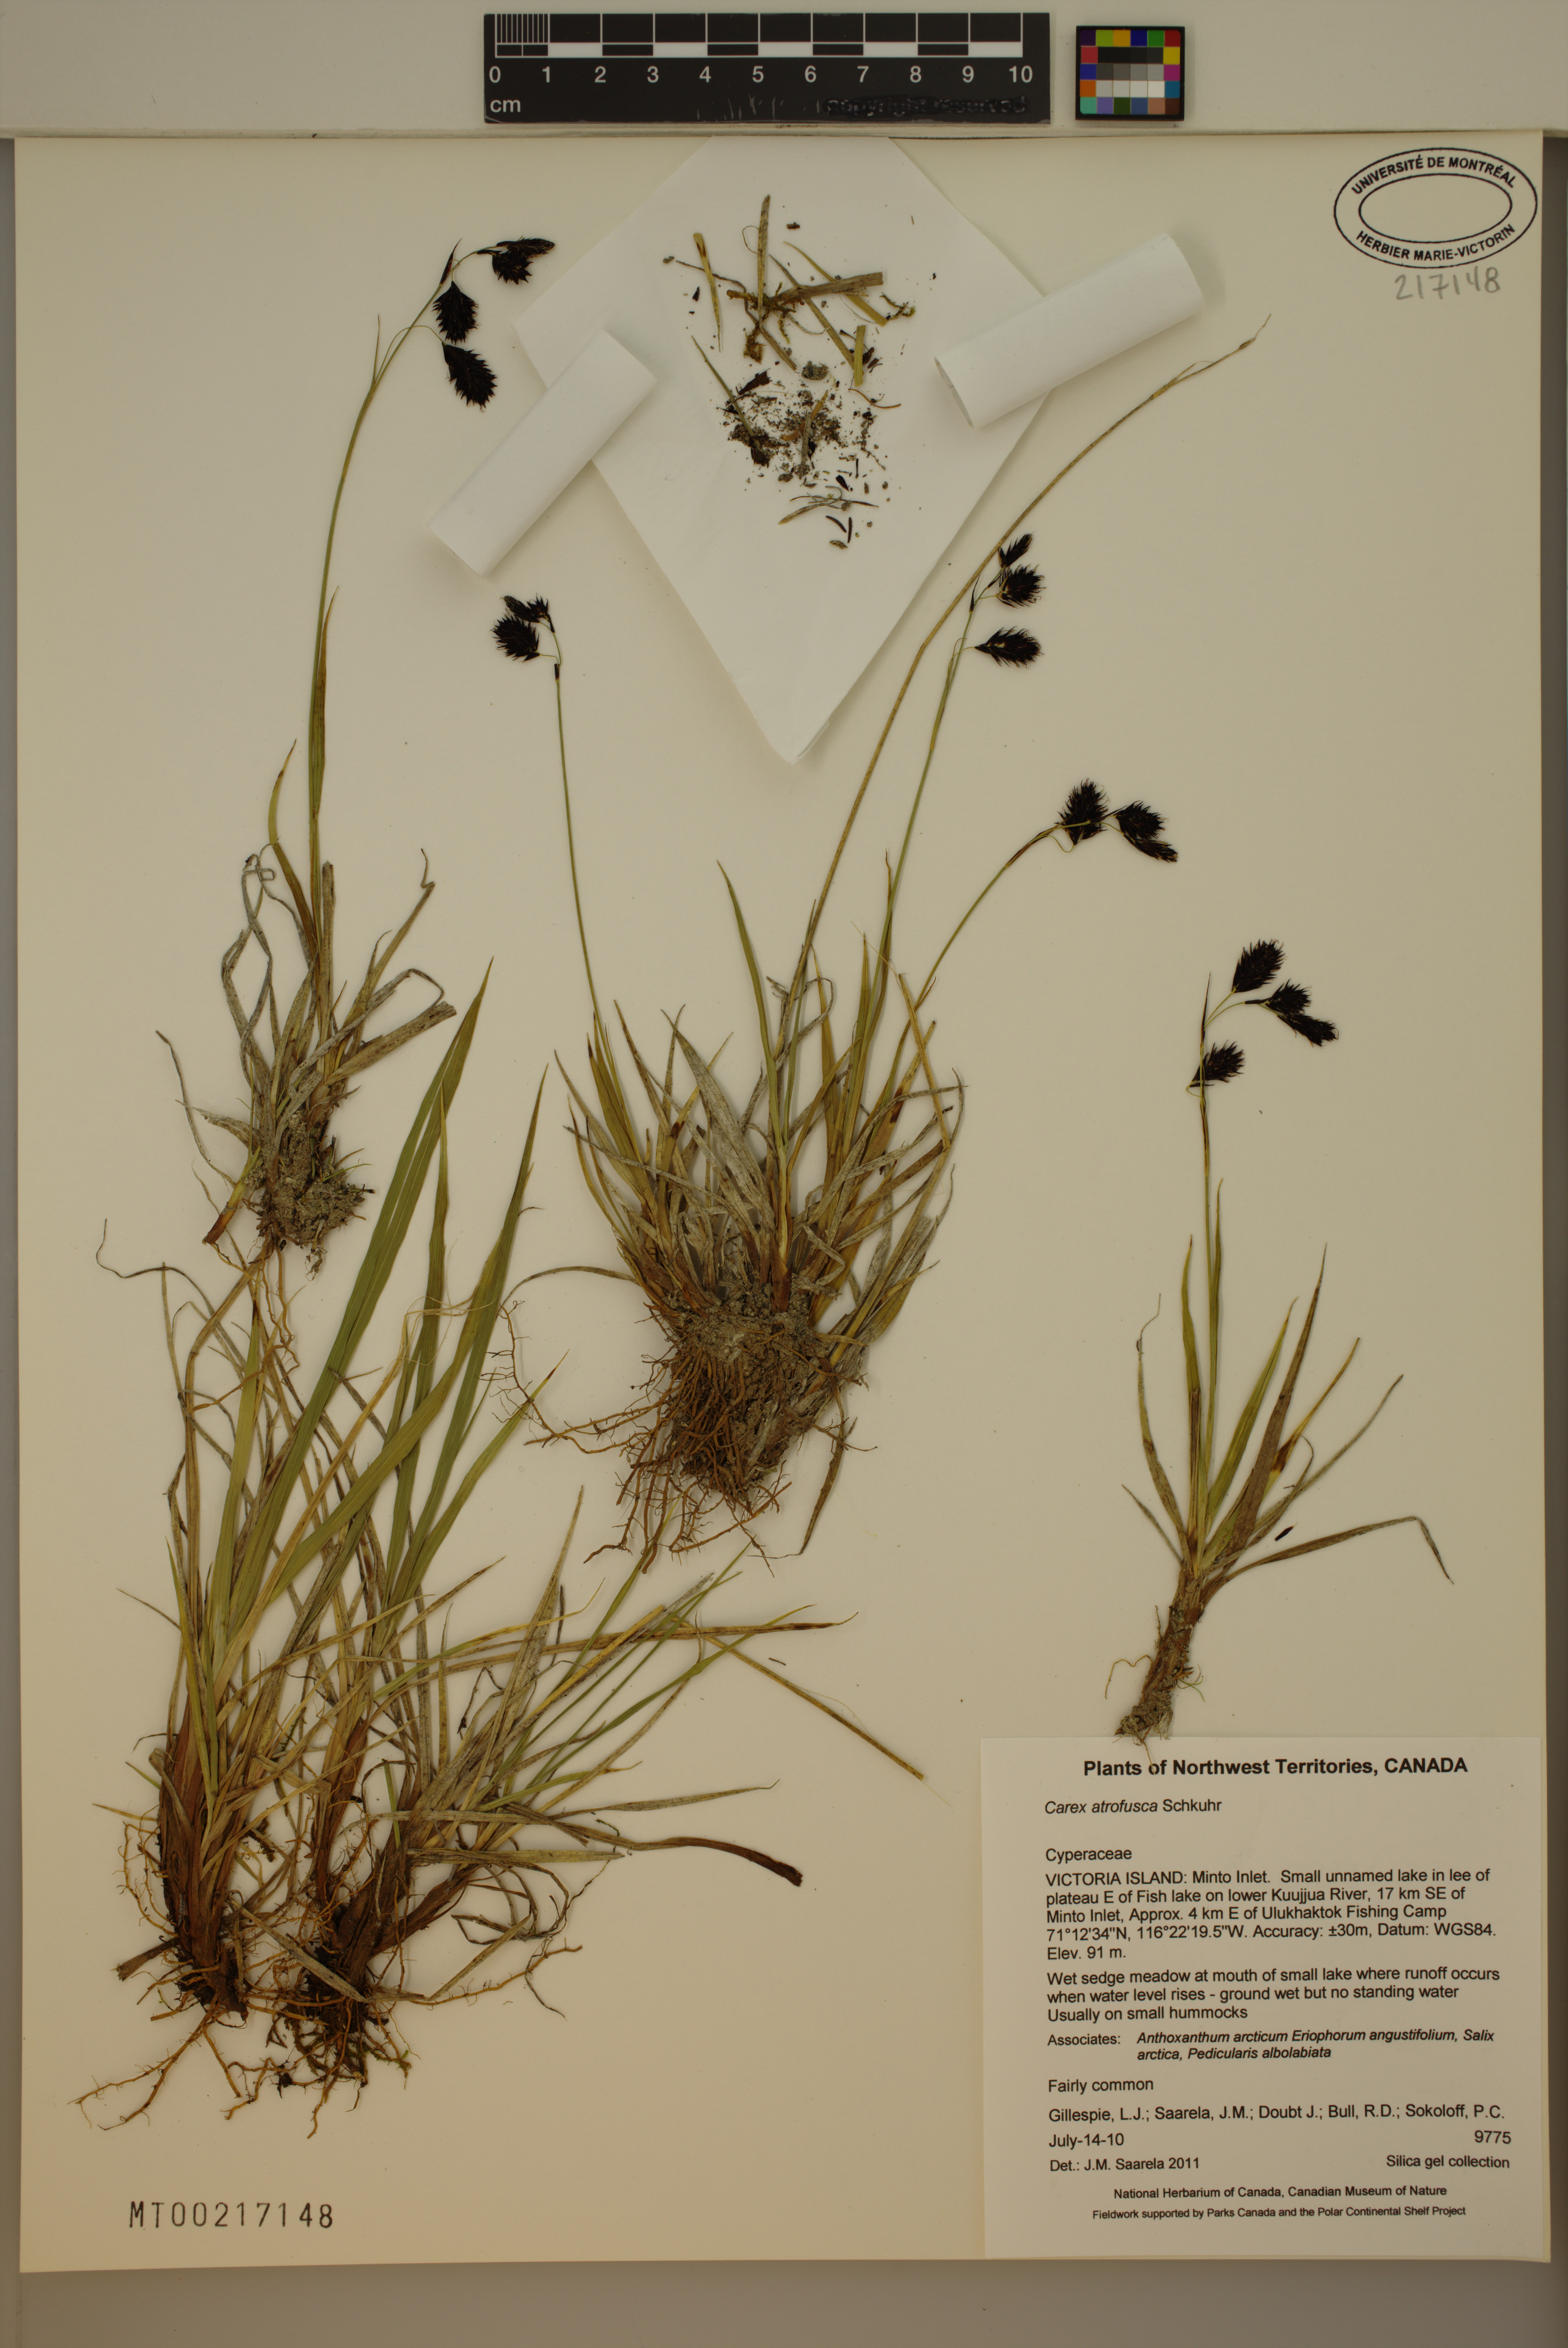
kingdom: Plantae
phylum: Tracheophyta
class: Liliopsida
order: Poales
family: Cyperaceae
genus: Carex
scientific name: Carex atrofusca
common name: Scorched alpine-sedge
